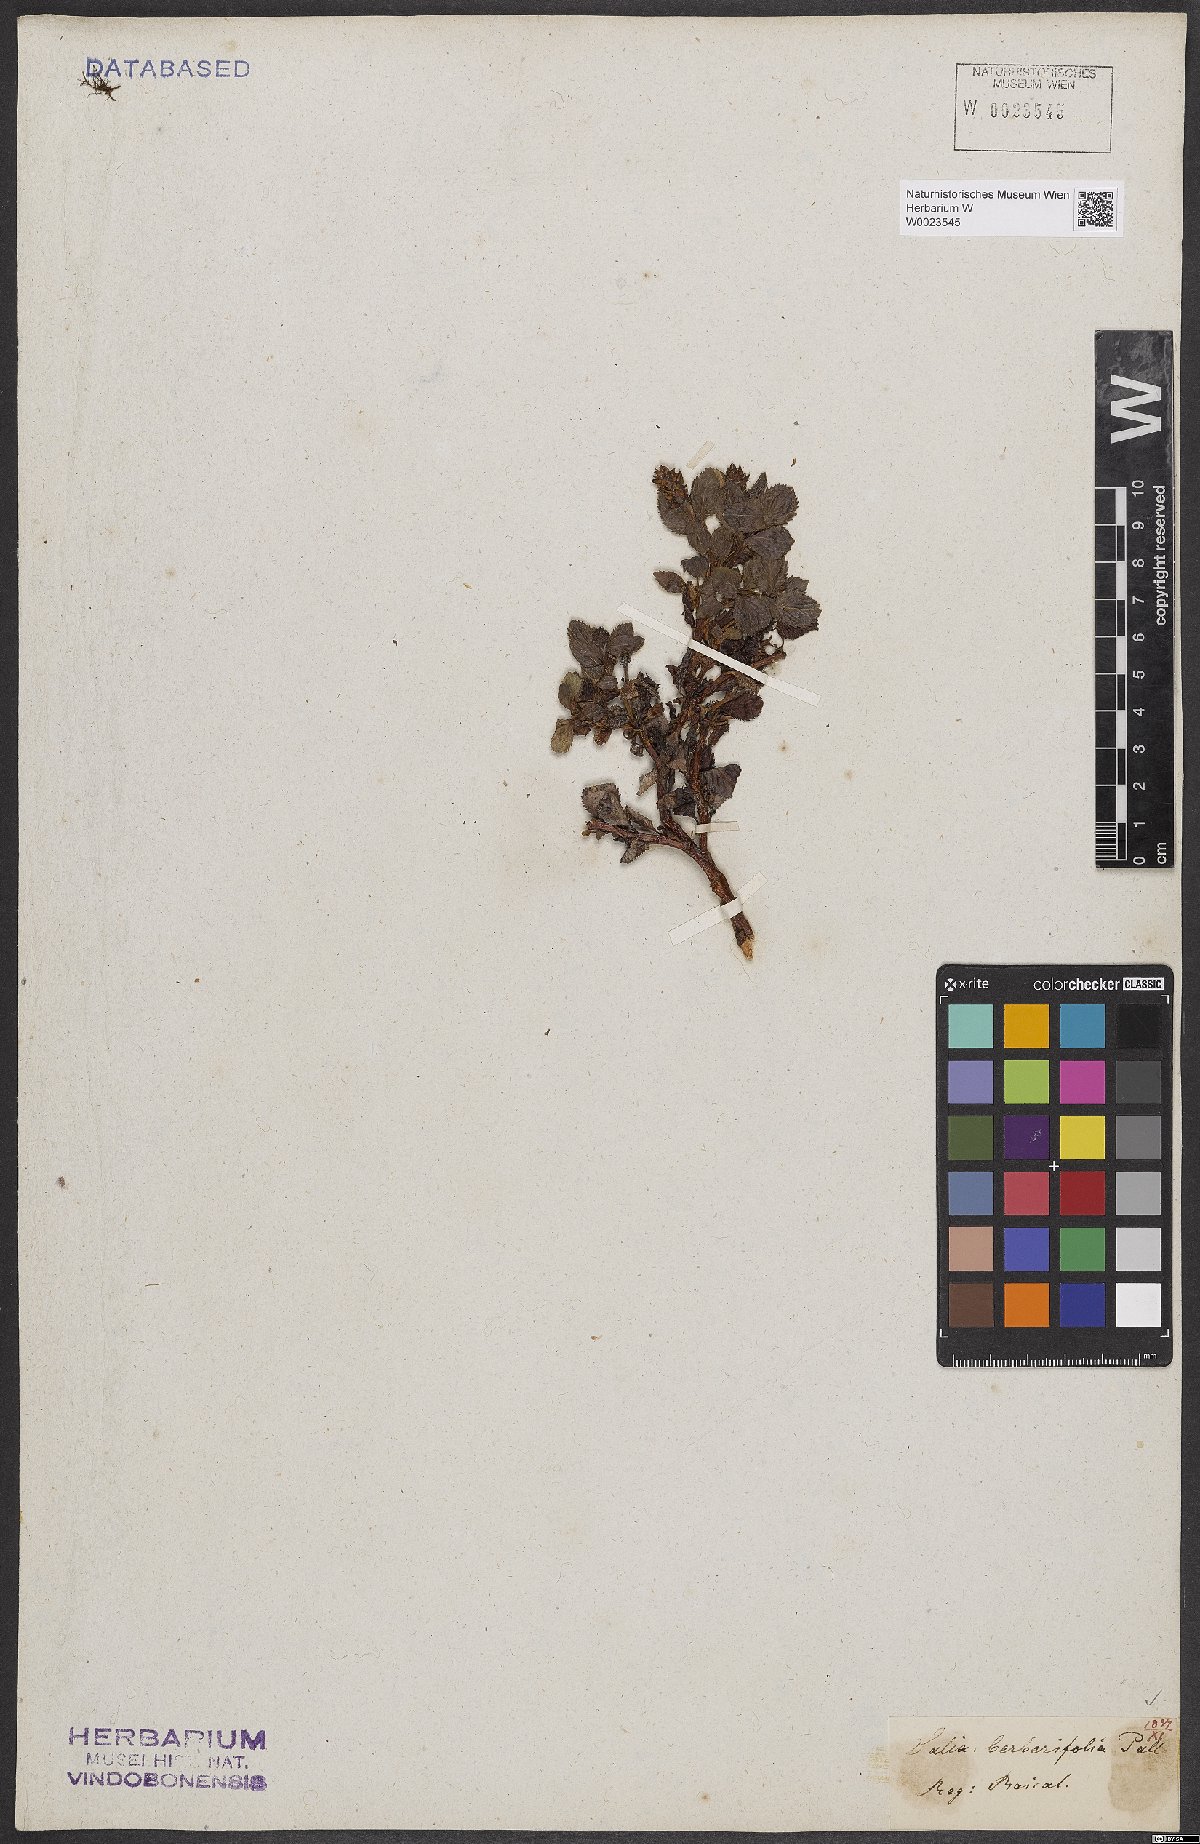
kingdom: Plantae
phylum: Tracheophyta
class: Magnoliopsida
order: Malpighiales
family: Salicaceae
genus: Salix
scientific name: Salix berberifolia
